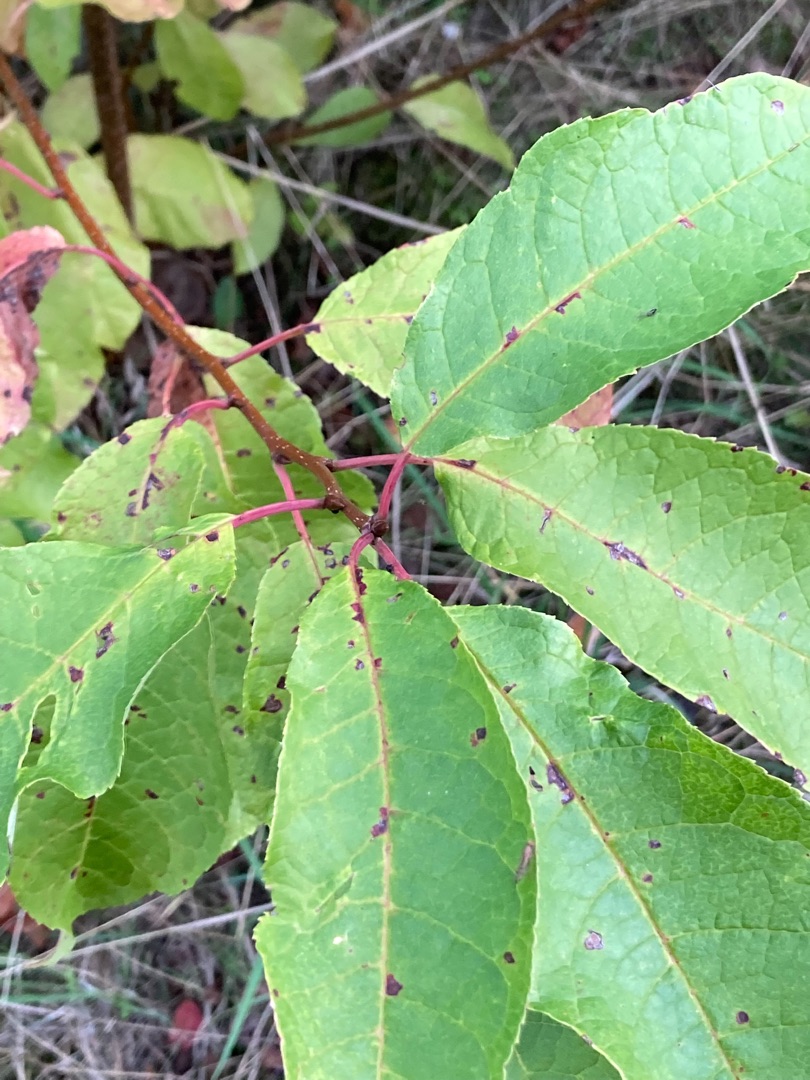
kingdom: Plantae
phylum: Tracheophyta
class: Magnoliopsida
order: Rosales
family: Rosaceae
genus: Prunus
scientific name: Prunus padus
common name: Almindelig hæg
